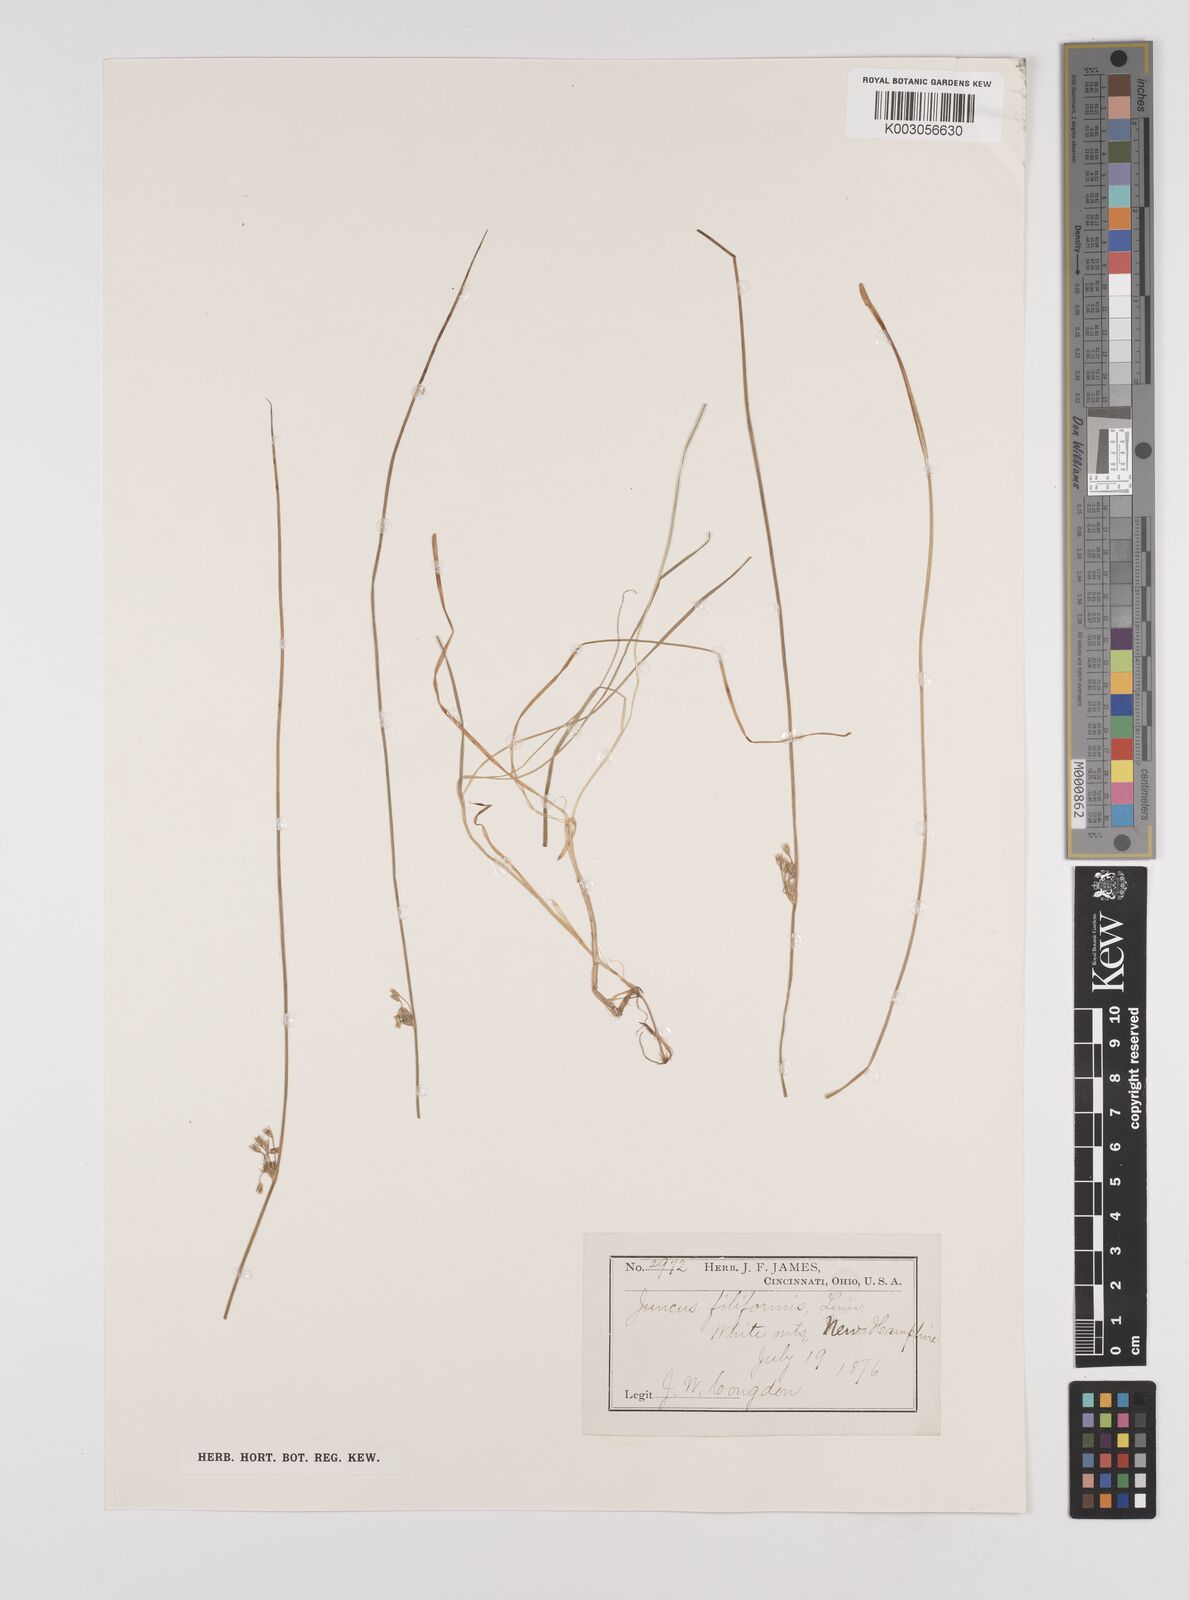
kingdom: Plantae
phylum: Tracheophyta
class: Liliopsida
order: Poales
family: Juncaceae
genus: Juncus
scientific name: Juncus filiformis
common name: Thread rush
